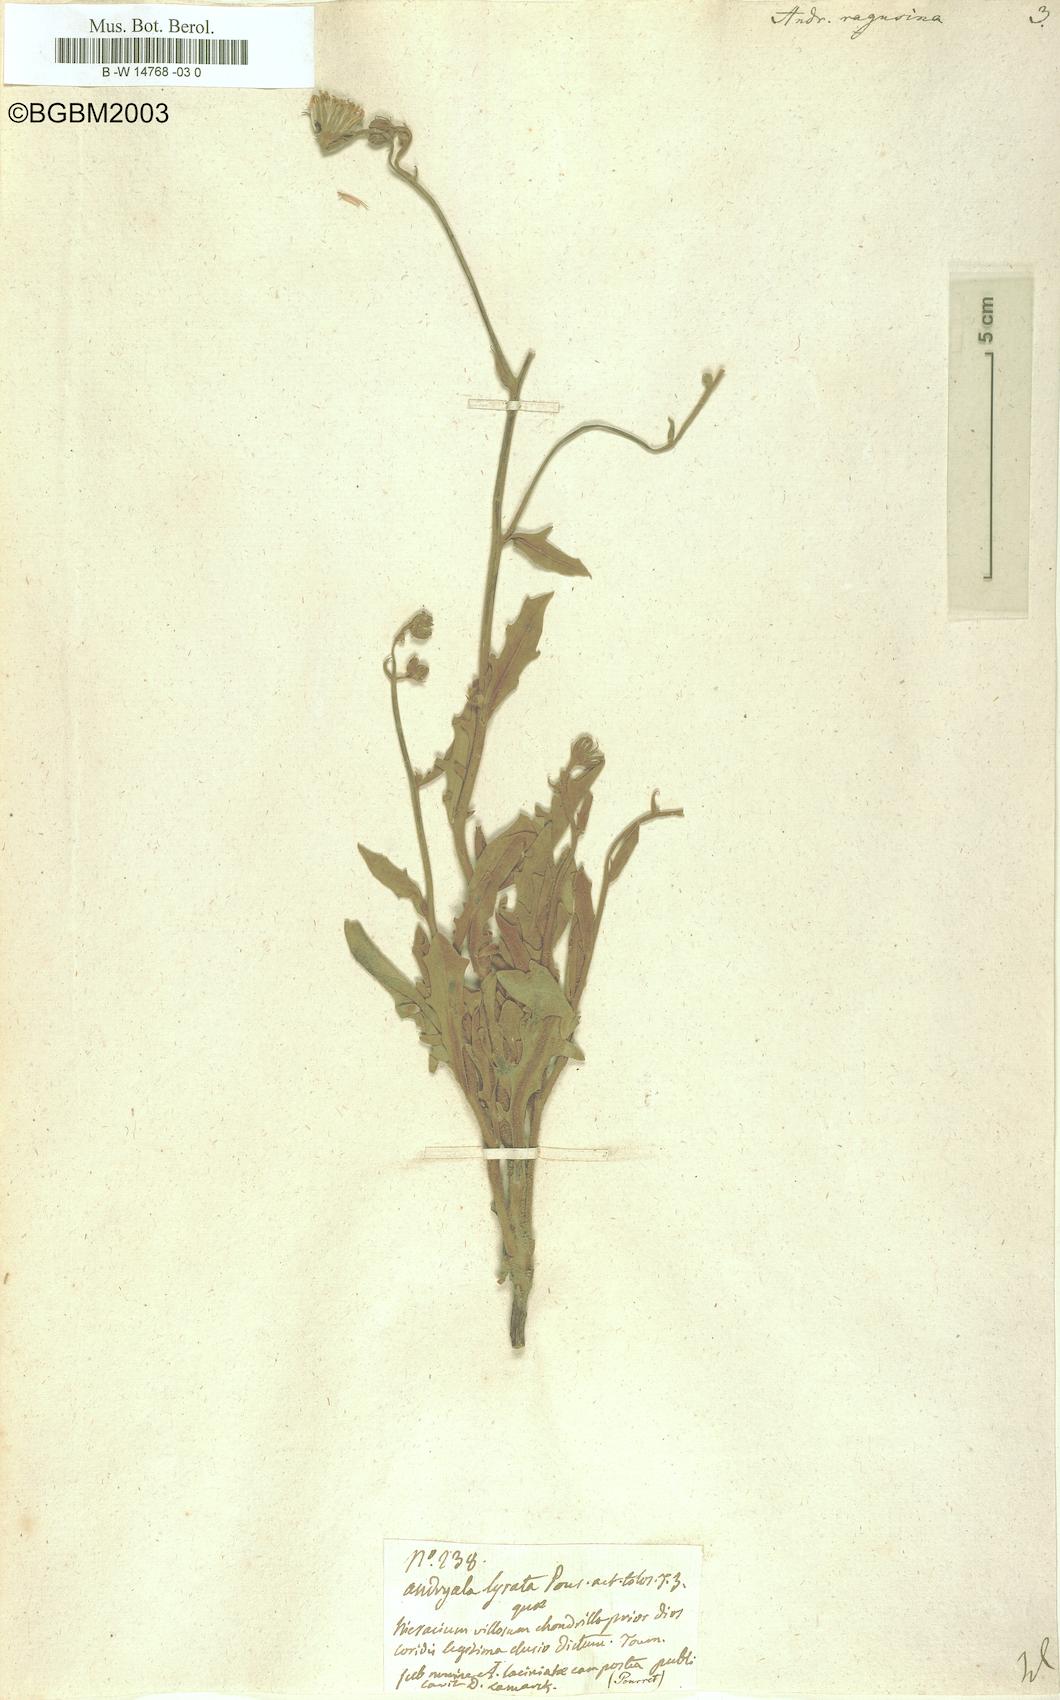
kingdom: Plantae
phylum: Tracheophyta
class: Magnoliopsida
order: Asterales
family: Asteraceae
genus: Andryala
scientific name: Andryala ragusina
